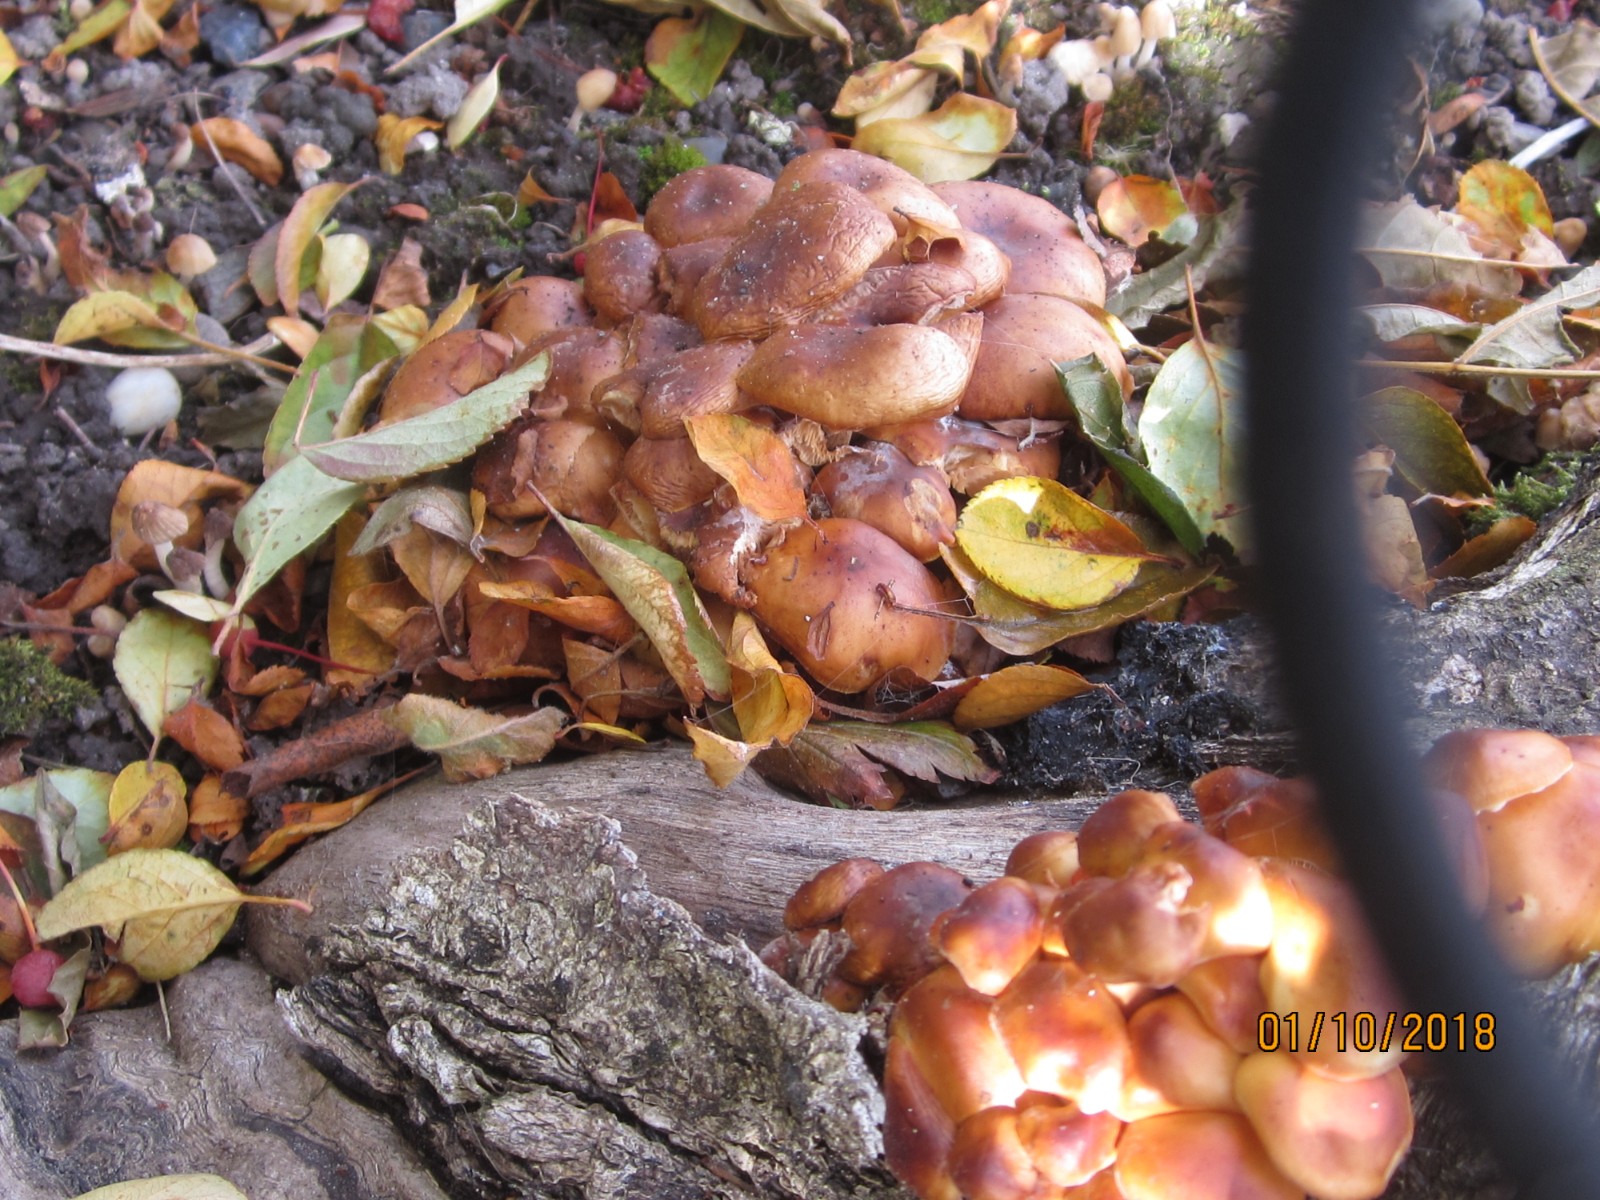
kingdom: Fungi
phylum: Basidiomycota
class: Agaricomycetes
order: Agaricales
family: Strophariaceae
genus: Hypholoma
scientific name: Hypholoma fasciculare
